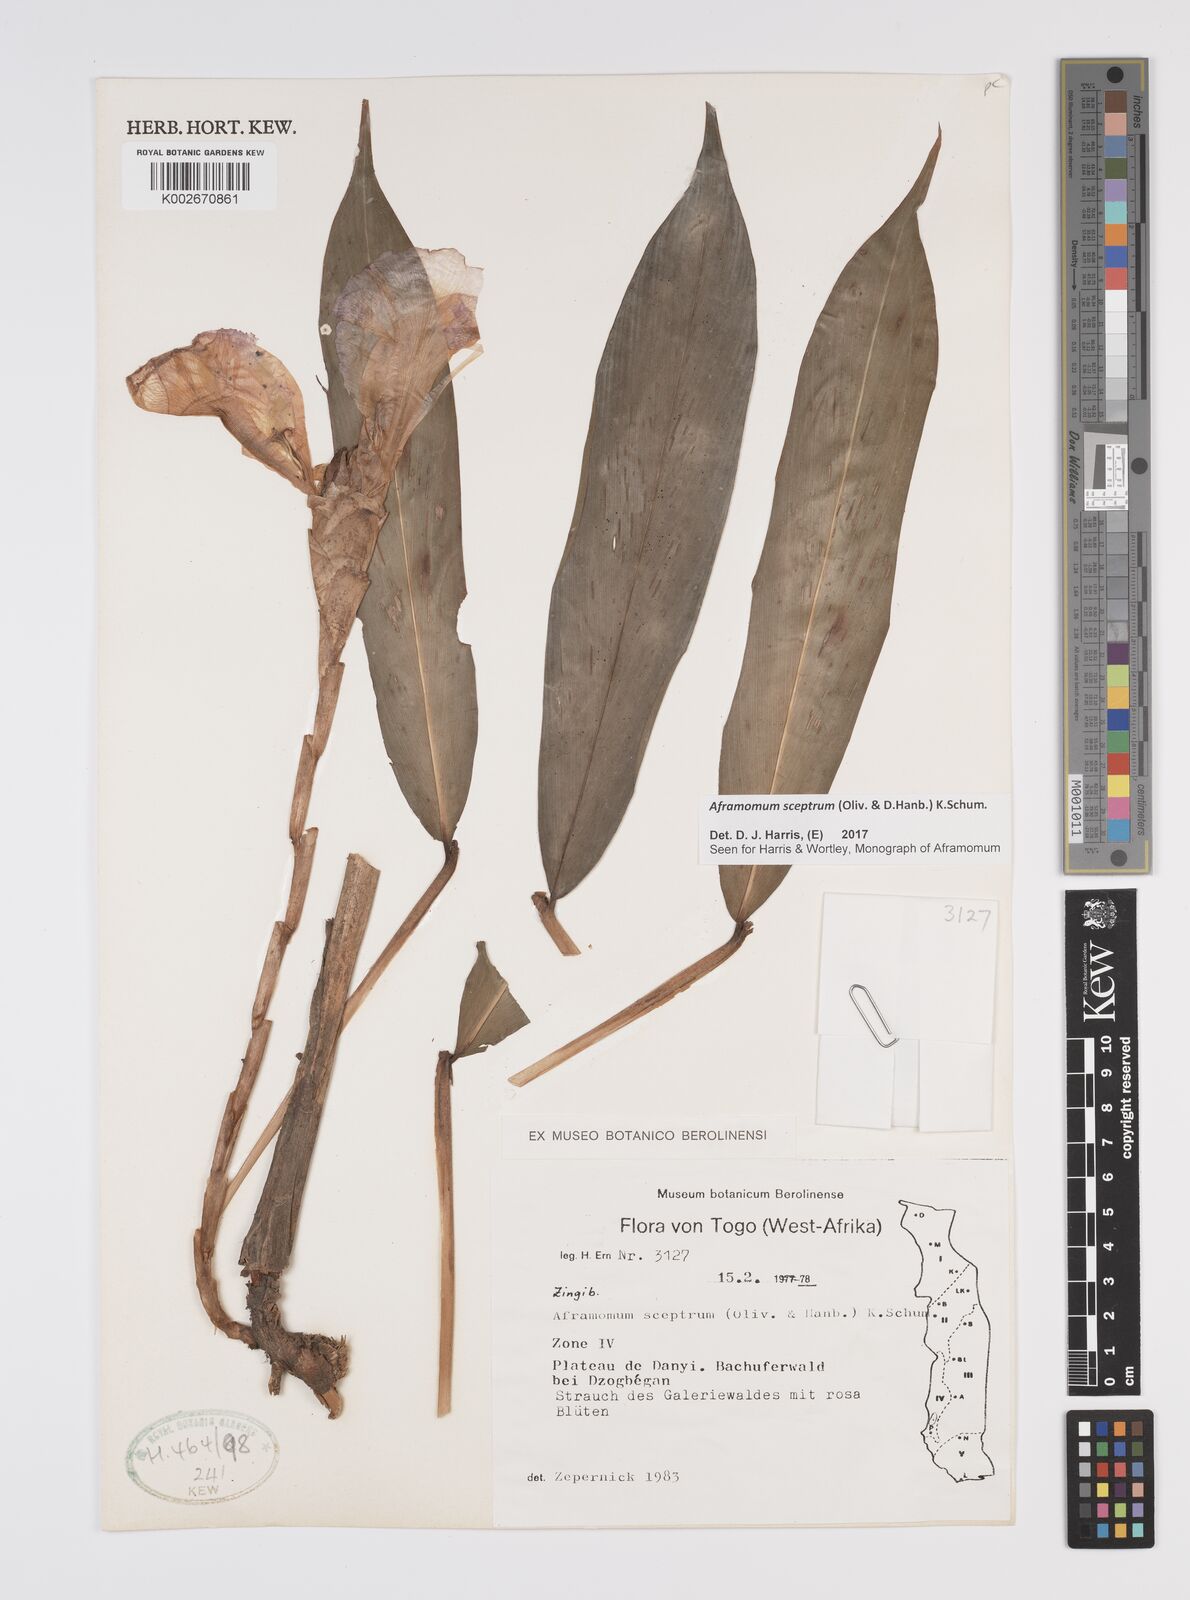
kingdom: Plantae
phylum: Tracheophyta
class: Liliopsida
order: Zingiberales
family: Zingiberaceae
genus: Aframomum
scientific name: Aframomum cereum
